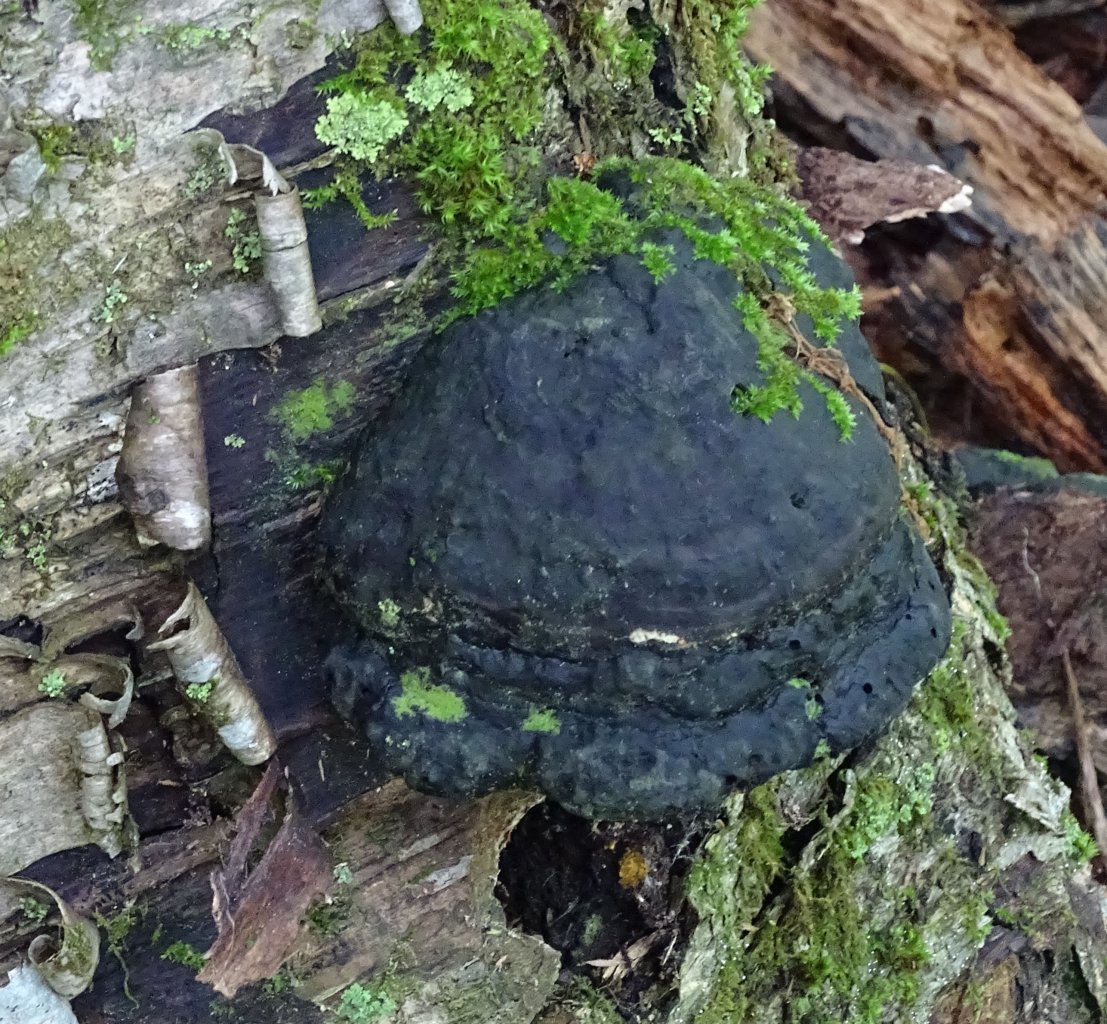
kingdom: Animalia
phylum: Arthropoda
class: Insecta
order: Lepidoptera
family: Hesperiidae
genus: Erynnis
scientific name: Erynnis
